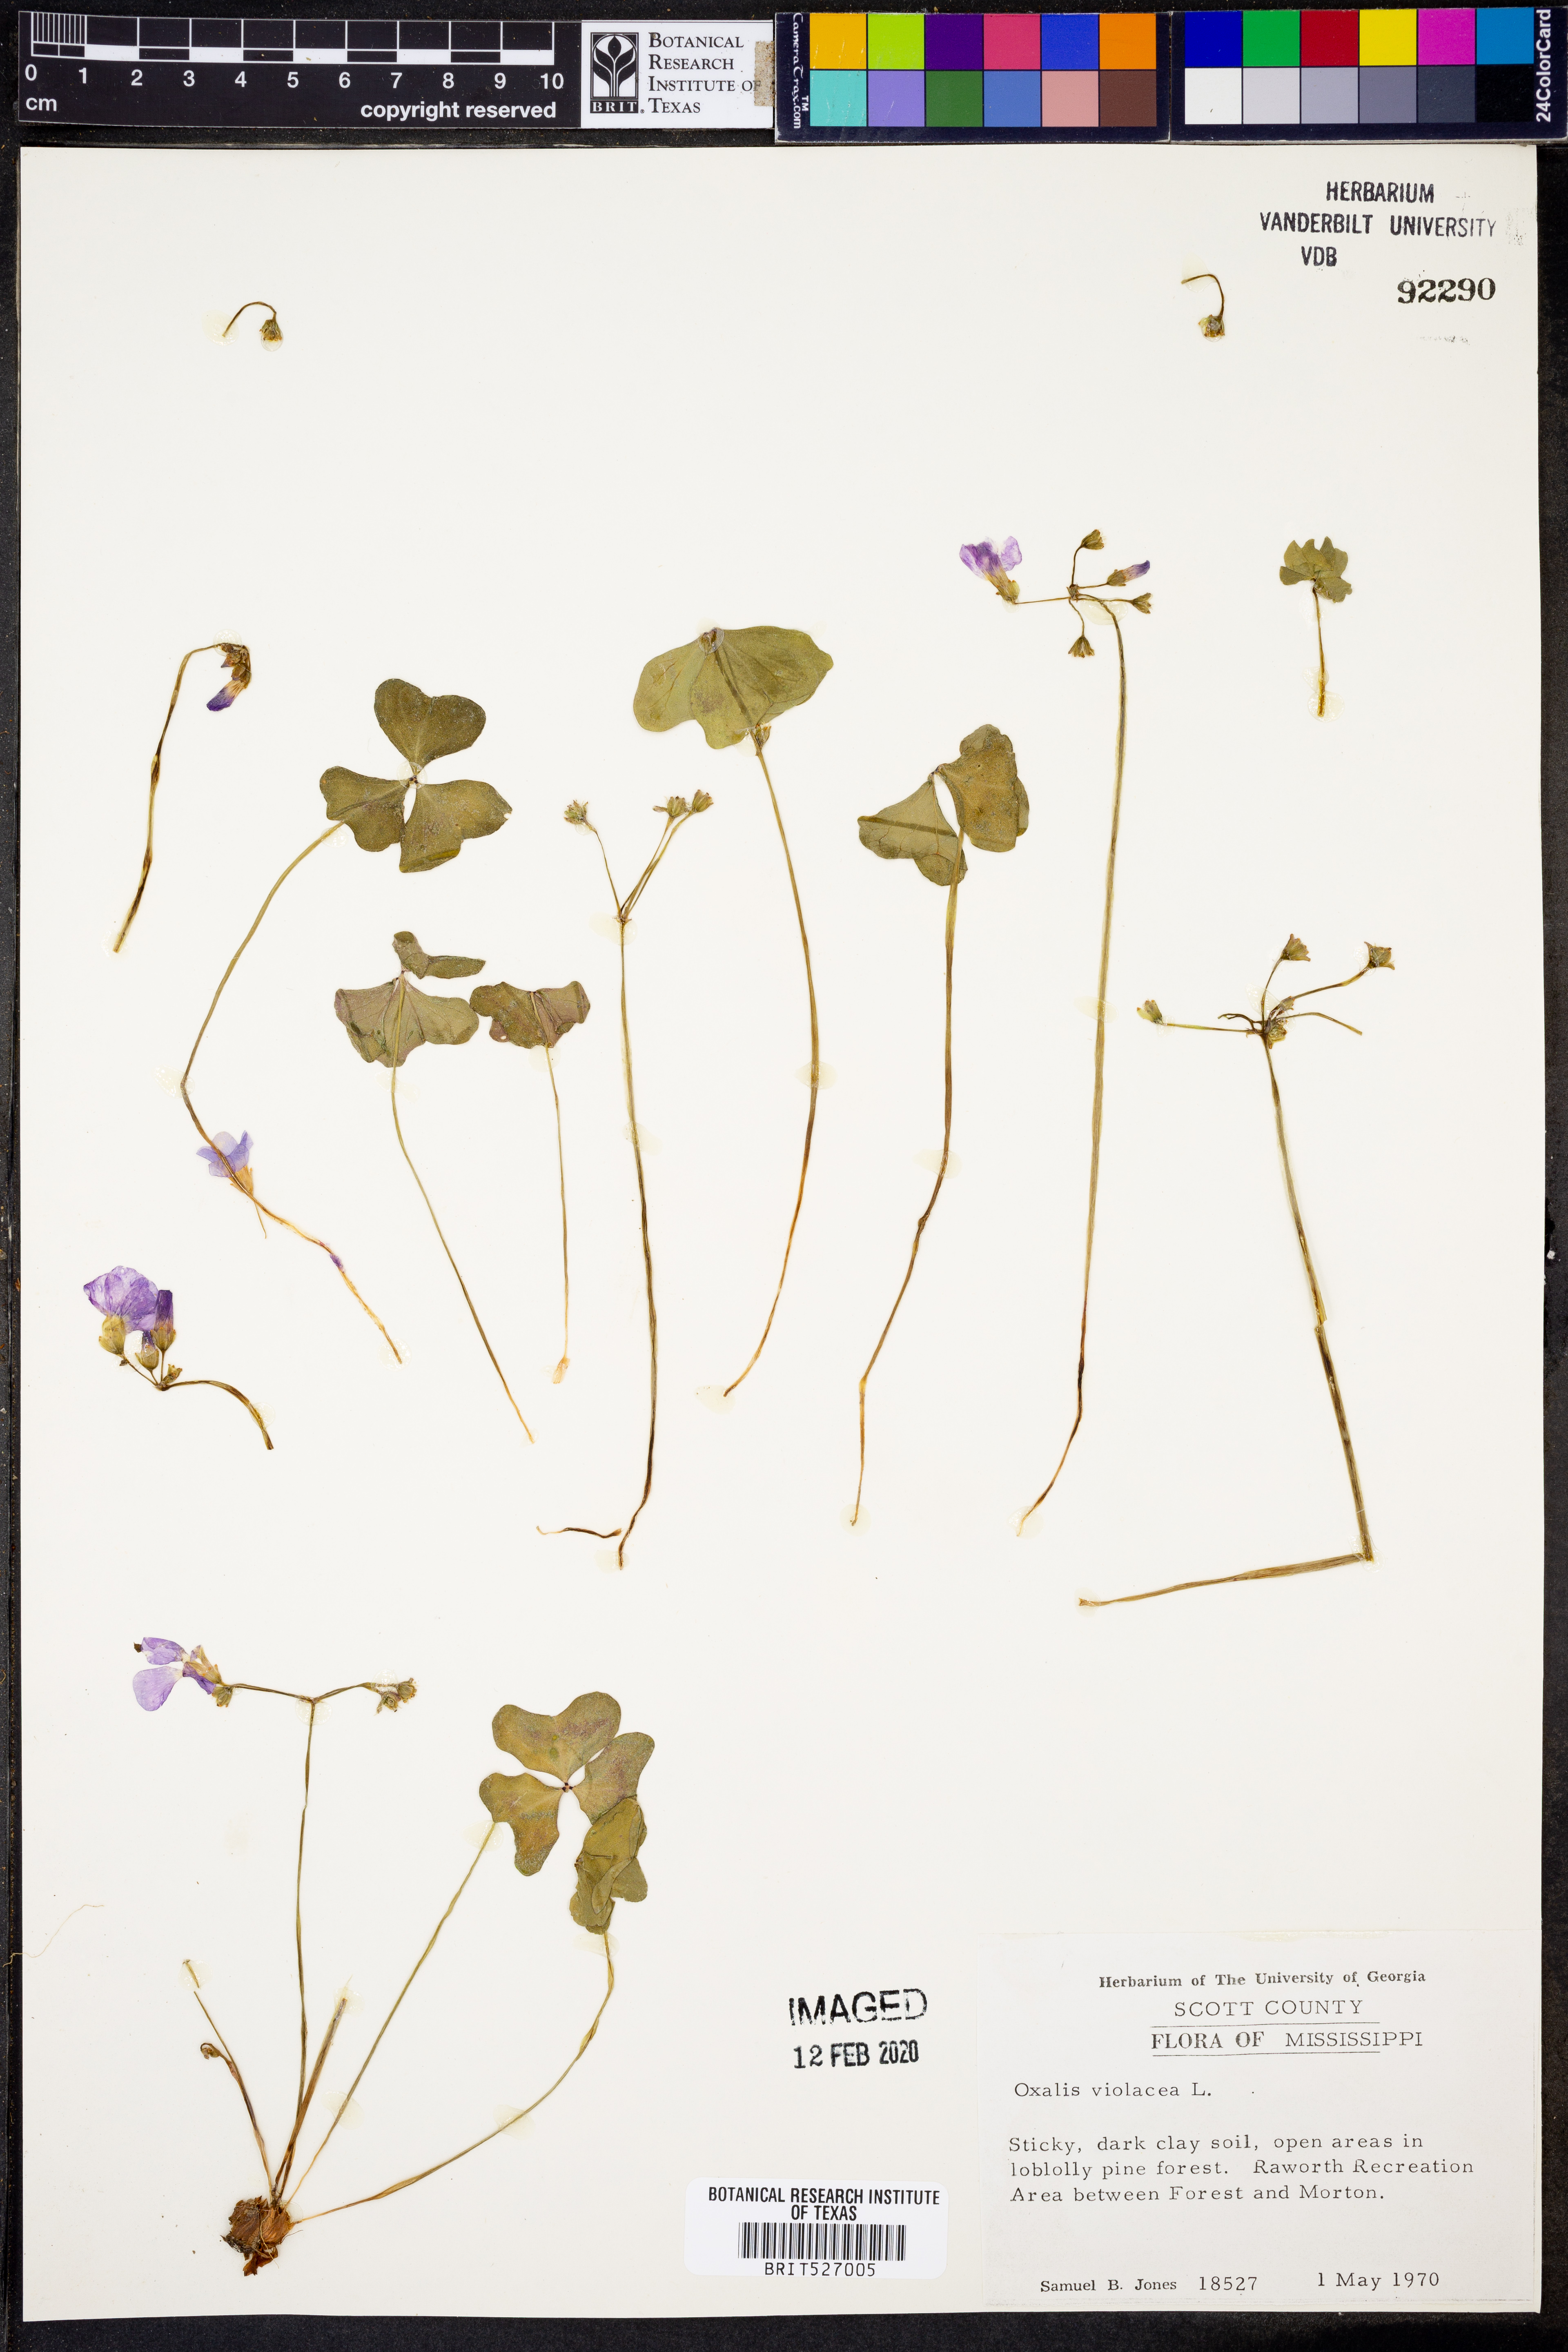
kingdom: Plantae
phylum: Tracheophyta
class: Magnoliopsida
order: Oxalidales
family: Oxalidaceae
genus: Oxalis
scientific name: Oxalis violacea
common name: Violet wood-sorrel
